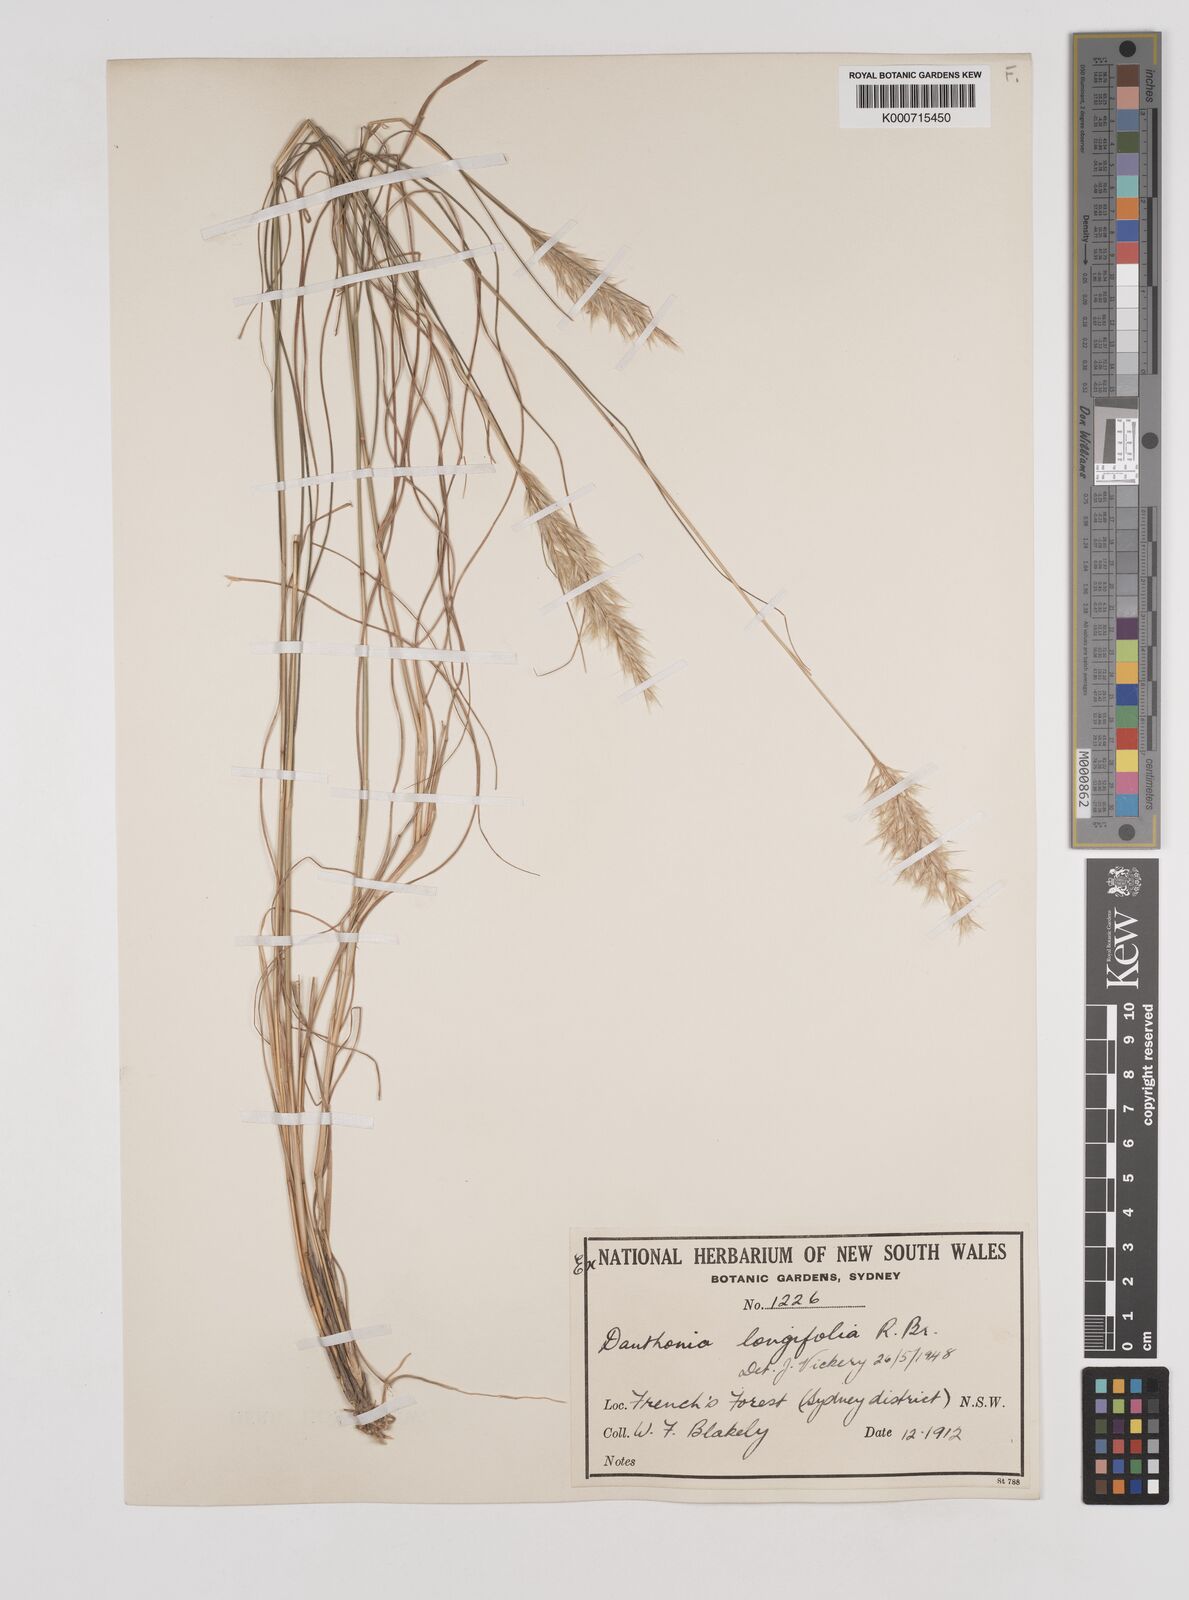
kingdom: Plantae
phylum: Tracheophyta
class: Liliopsida
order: Poales
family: Poaceae
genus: Rytidosperma
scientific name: Rytidosperma longifolium
